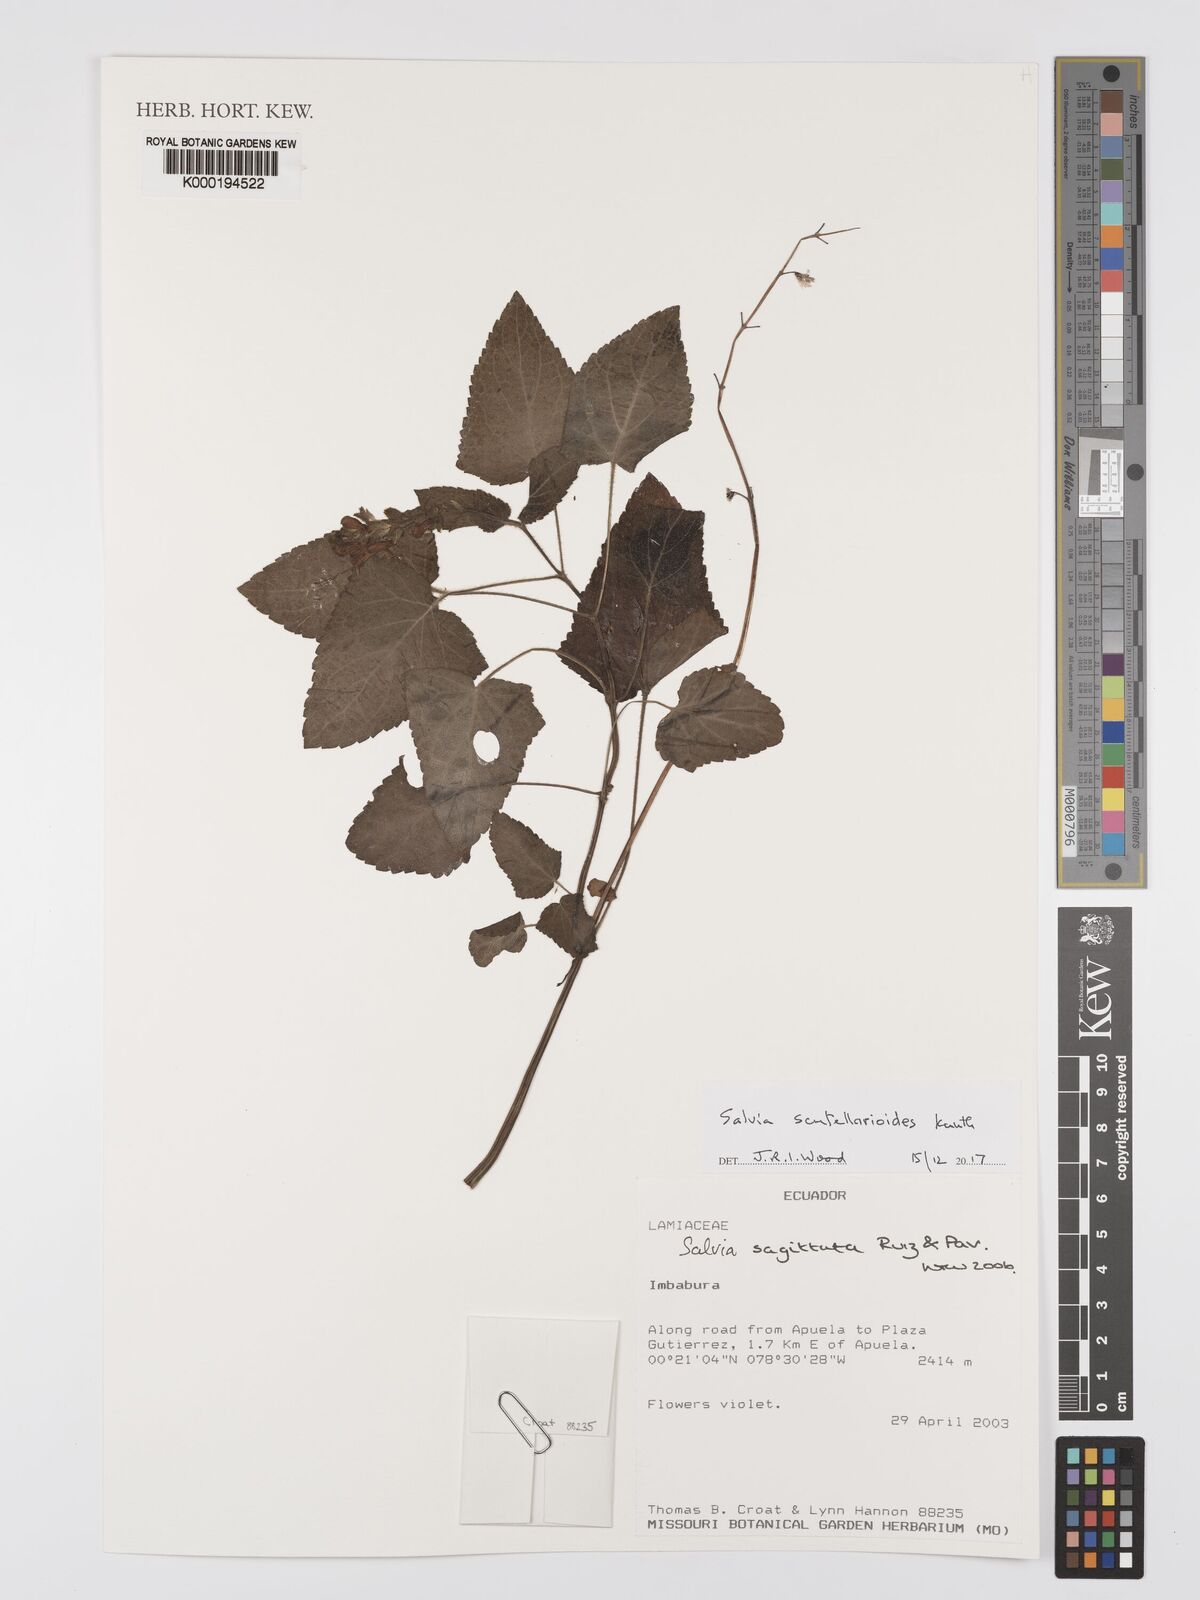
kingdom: Plantae
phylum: Tracheophyta
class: Magnoliopsida
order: Lamiales
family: Lamiaceae
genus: Salvia
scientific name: Salvia scutellarioides
